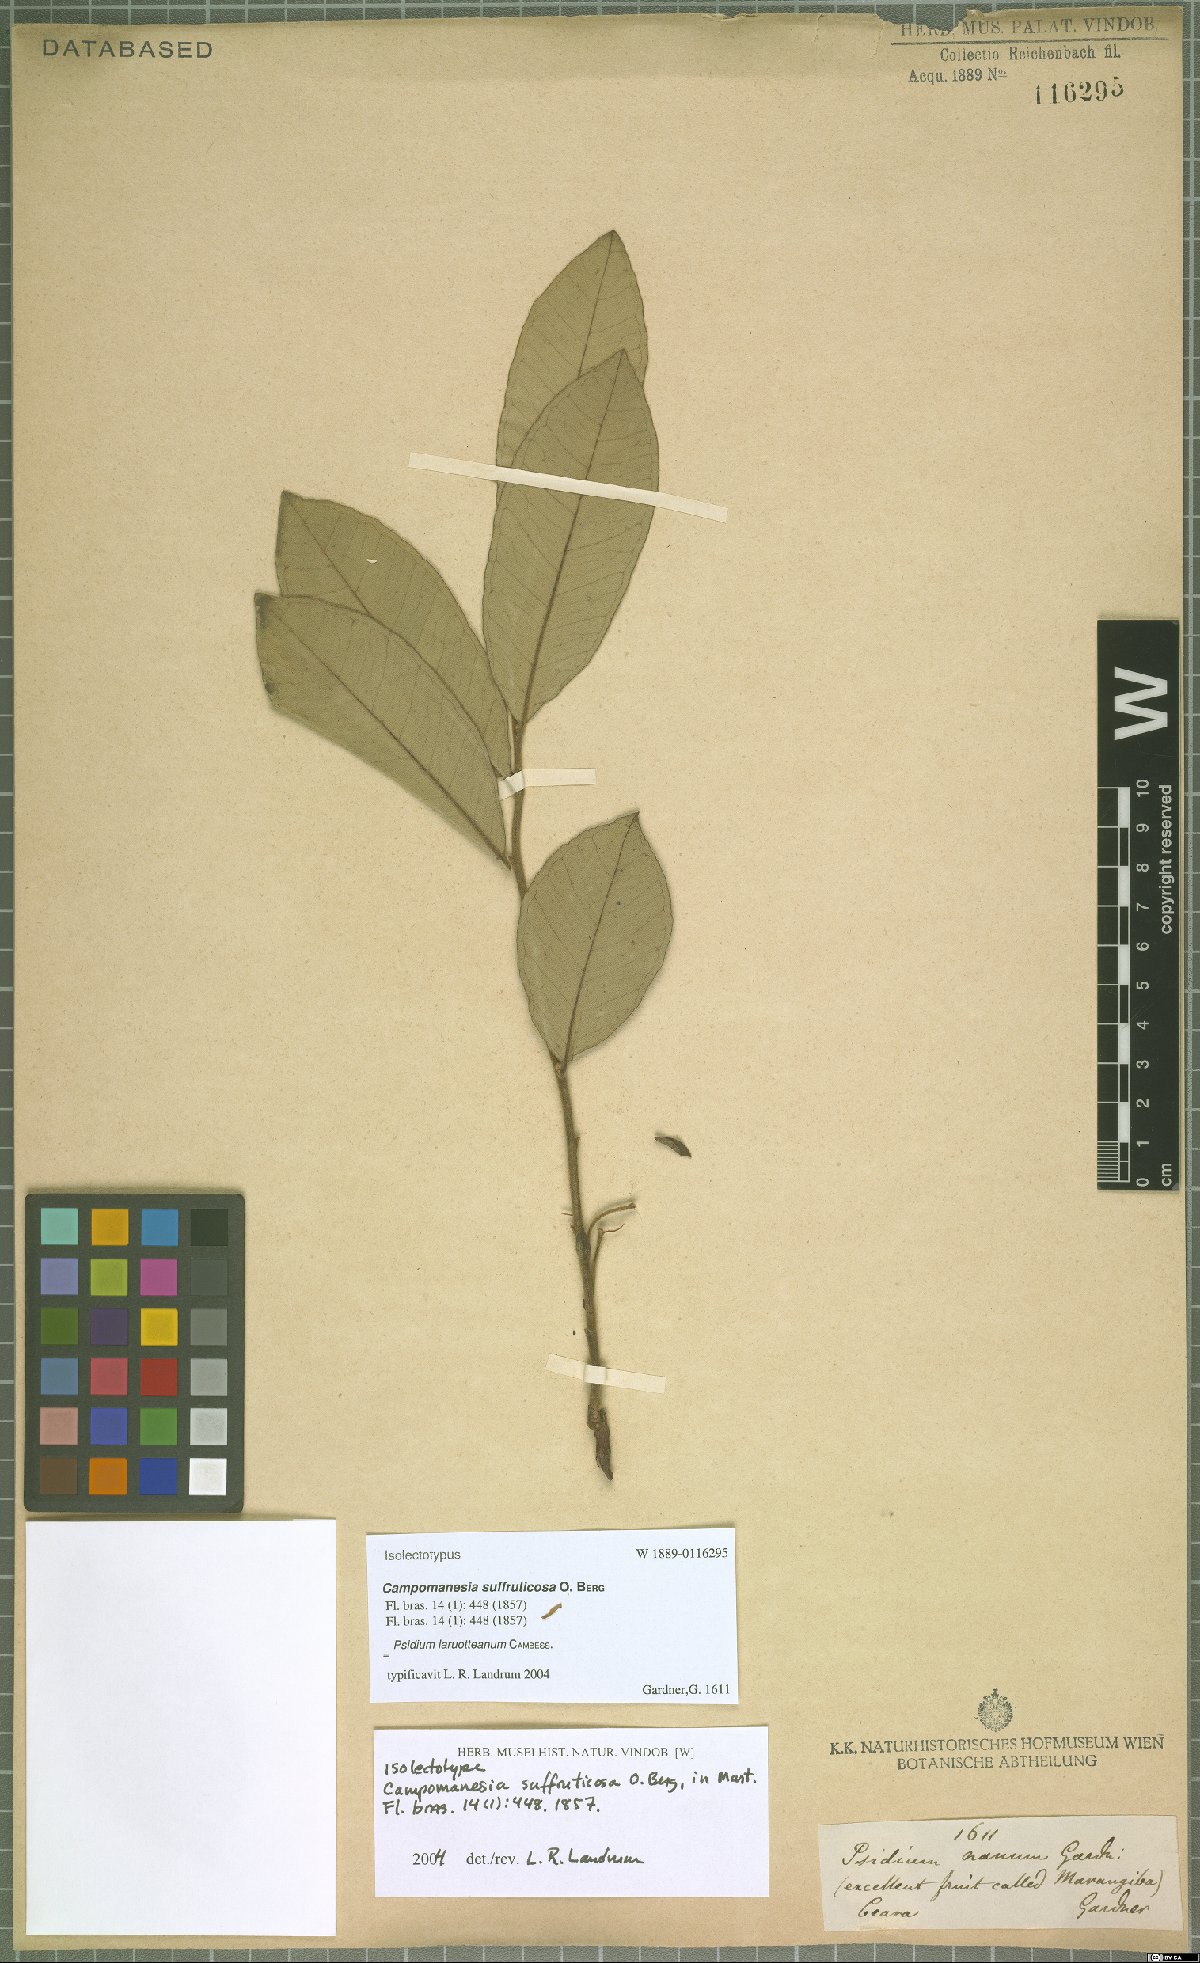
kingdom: Plantae
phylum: Tracheophyta
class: Magnoliopsida
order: Myrtales
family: Myrtaceae
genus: Psidium
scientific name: Psidium larueotteanum
